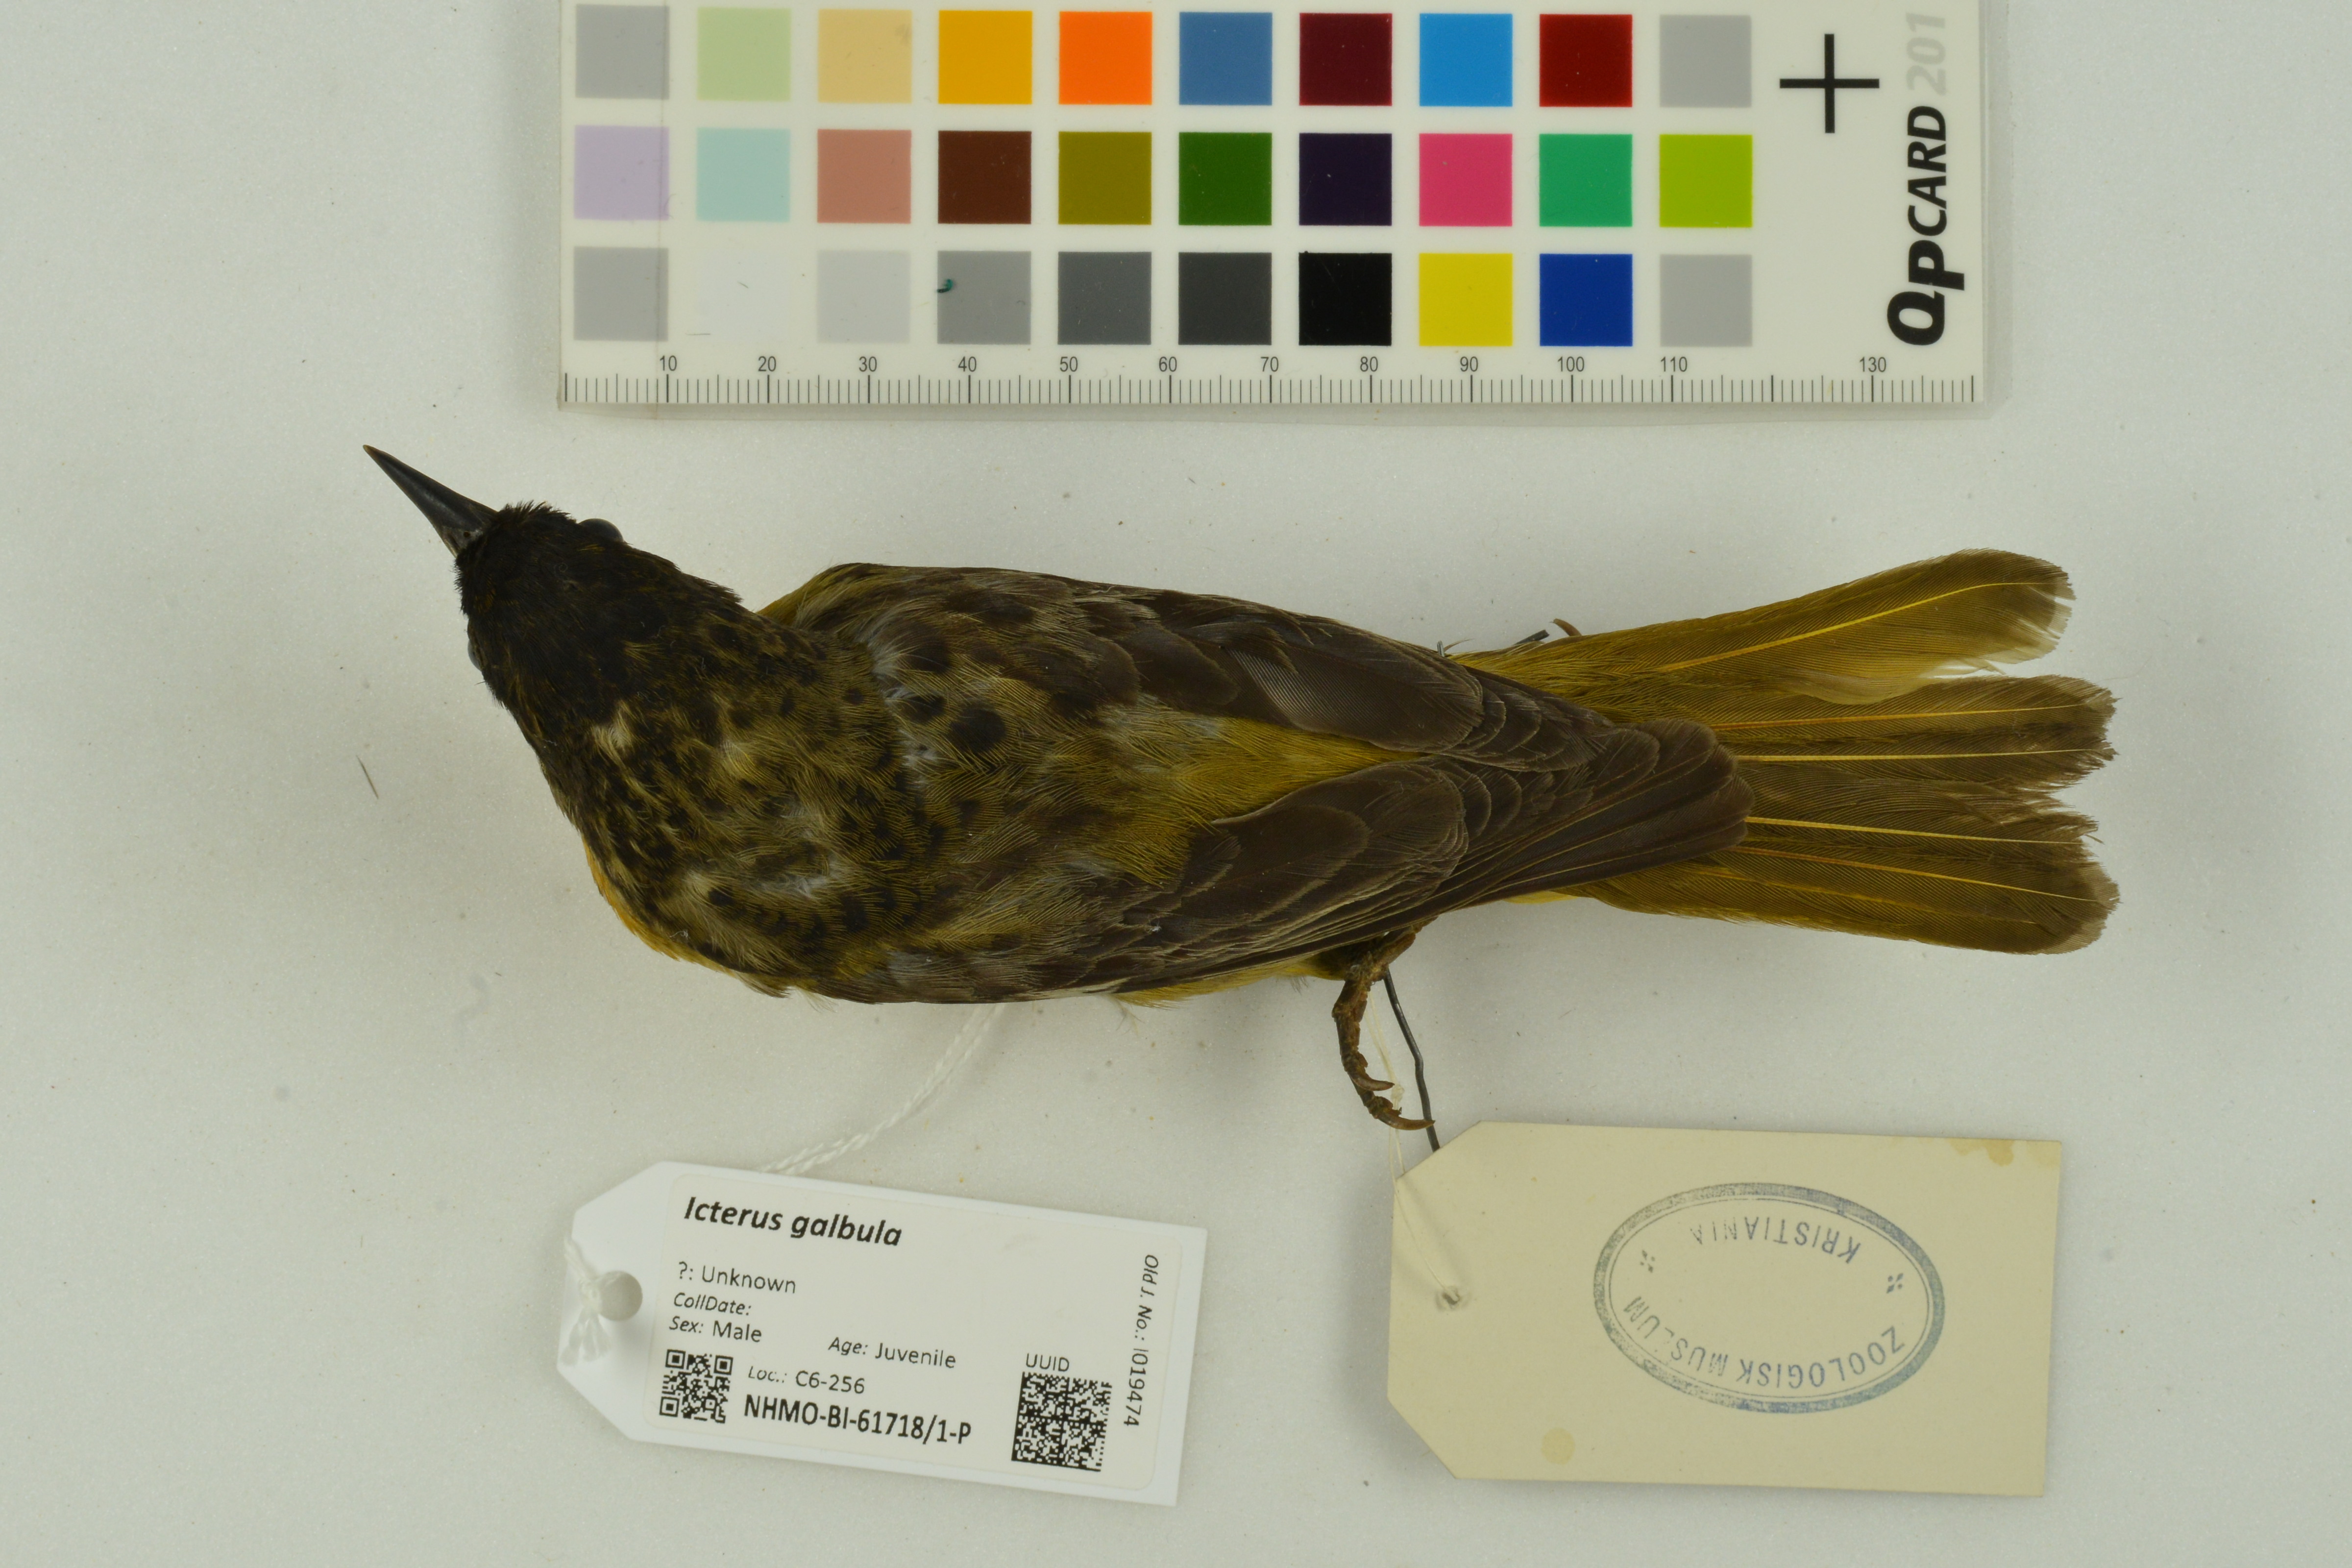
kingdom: Animalia
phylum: Chordata
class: Aves
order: Passeriformes
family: Icteridae
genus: Icterus
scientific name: Icterus galbula
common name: Baltimore oriole
